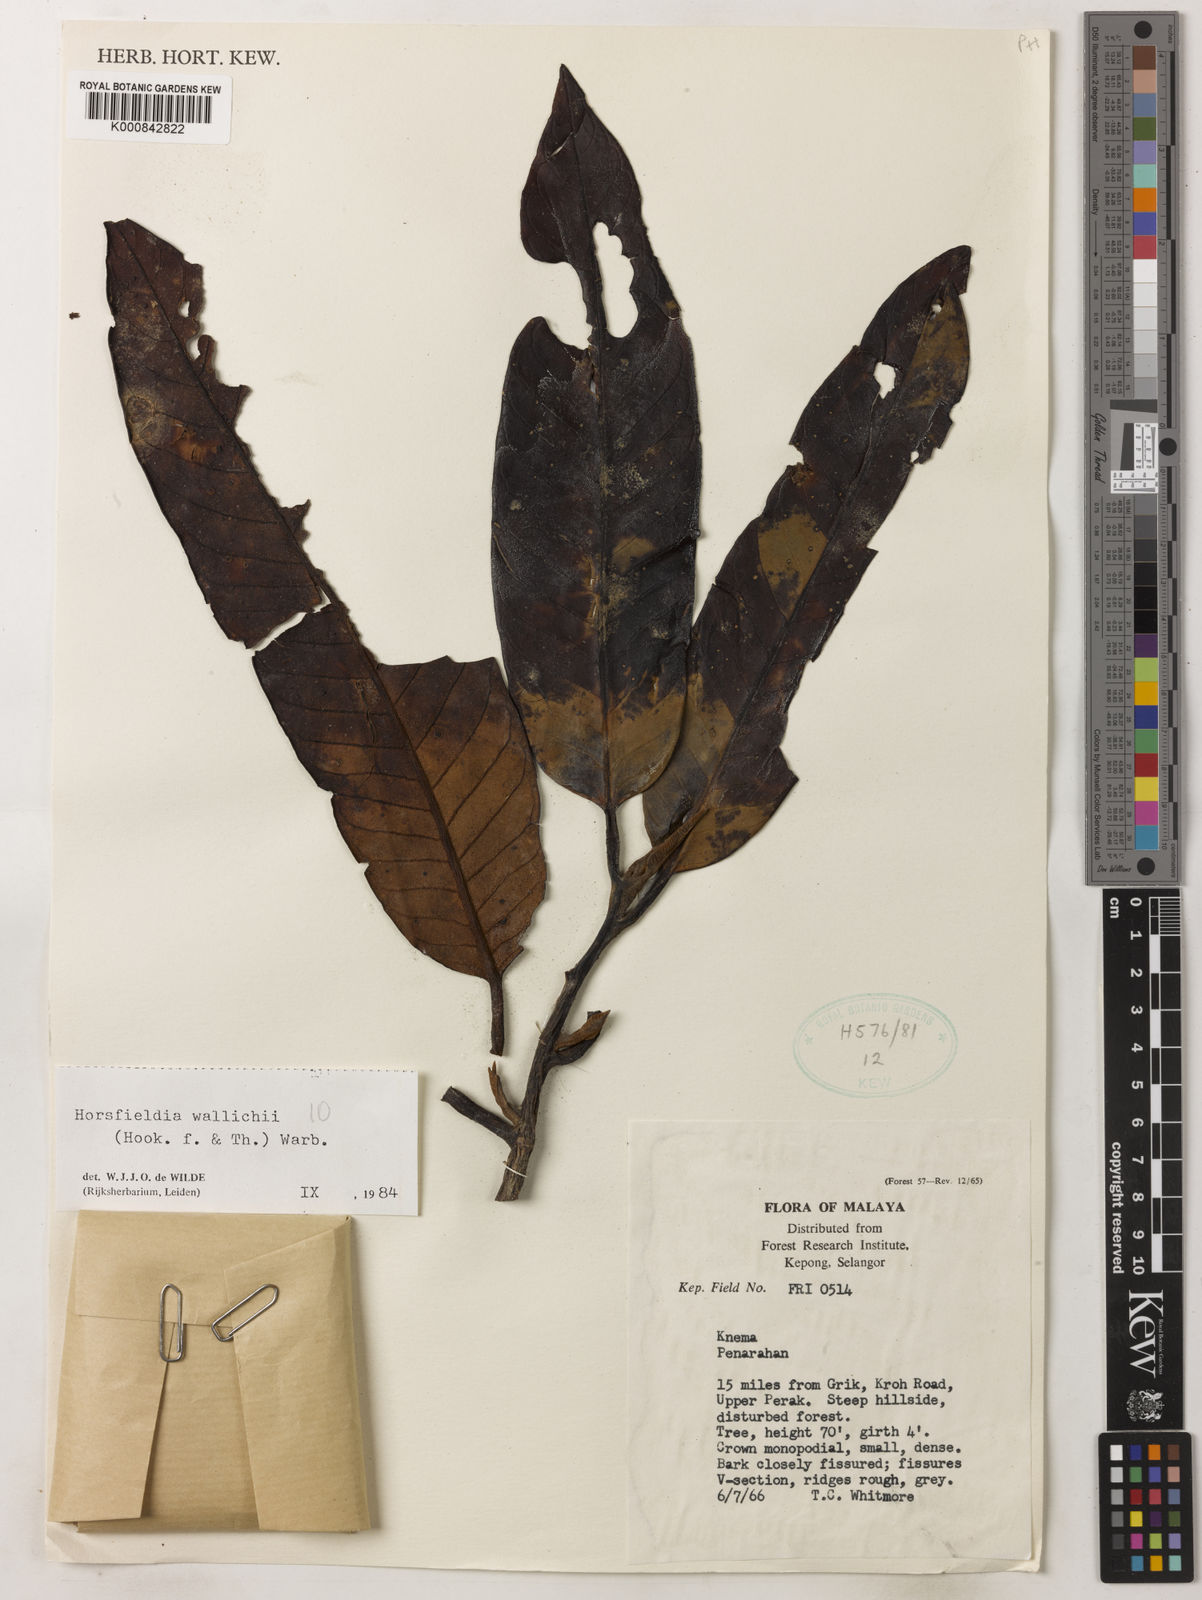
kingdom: Plantae
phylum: Tracheophyta
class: Magnoliopsida
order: Magnoliales
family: Myristicaceae
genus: Horsfieldia
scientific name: Horsfieldia wallichii
